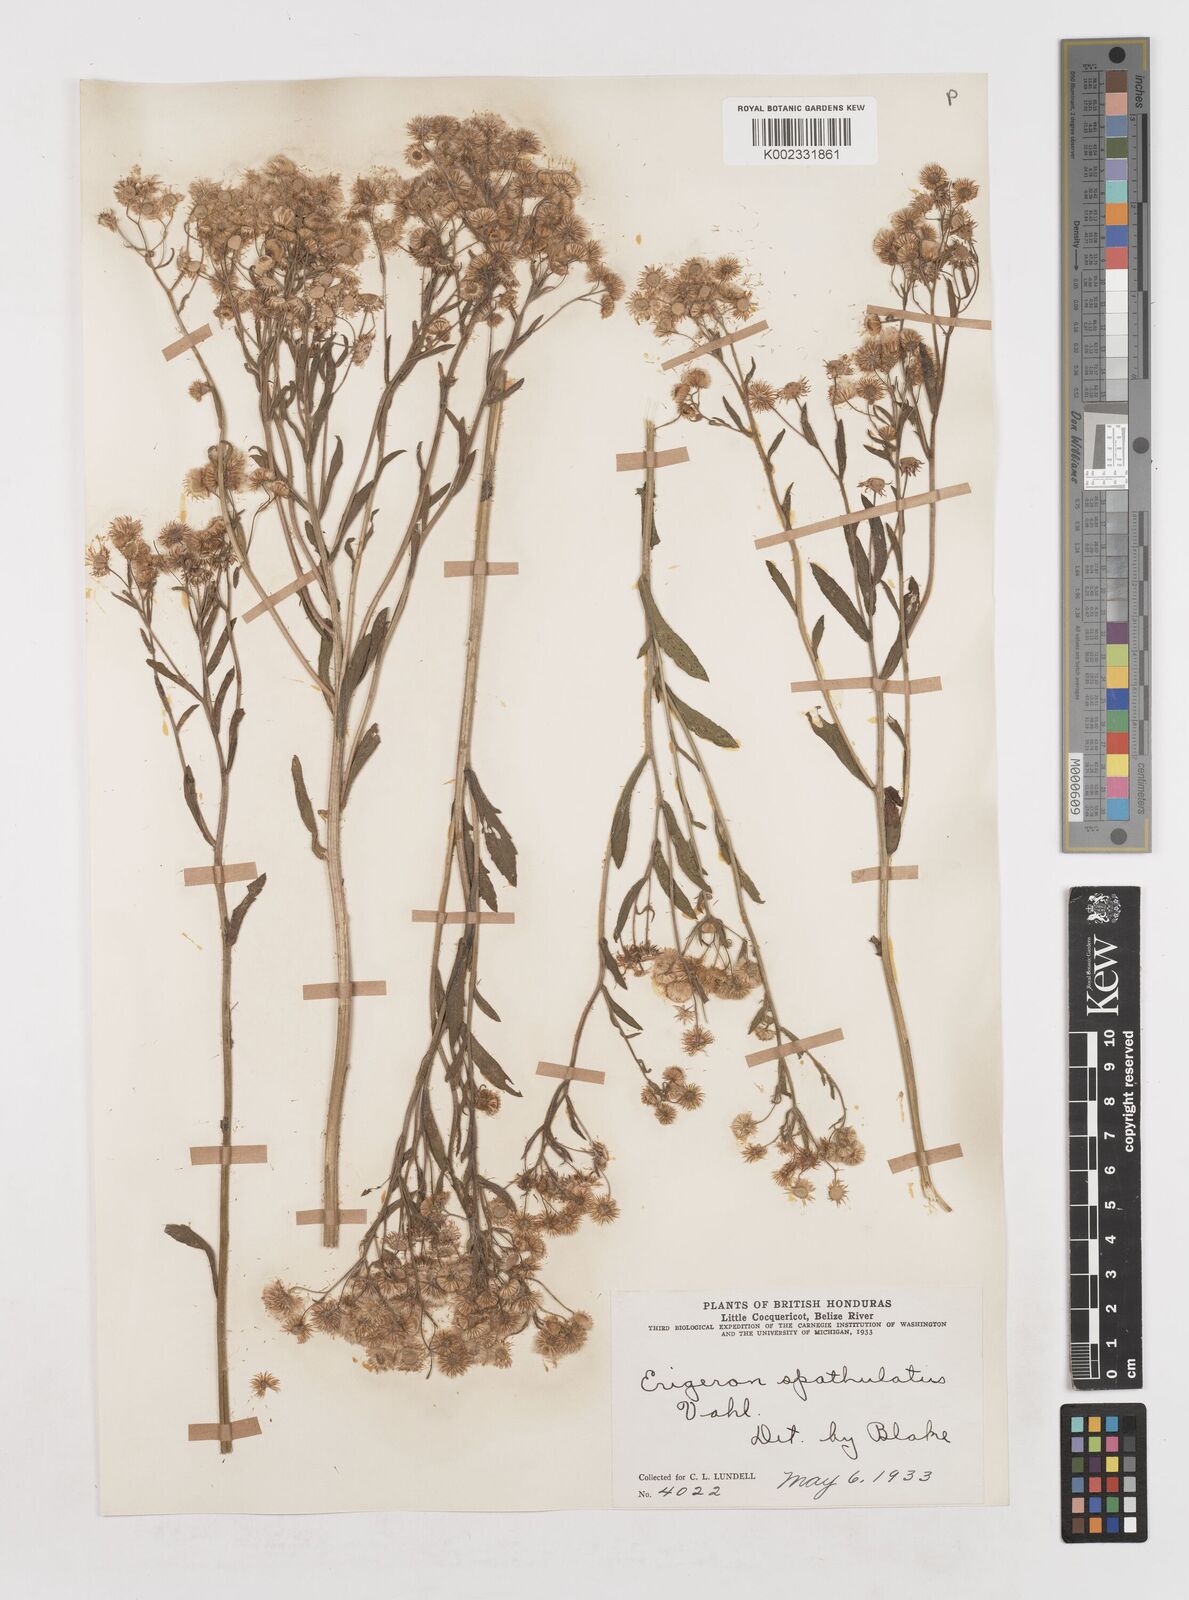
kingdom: Plantae
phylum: Tracheophyta
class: Magnoliopsida
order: Asterales
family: Asteraceae
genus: Erigeron
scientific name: Erigeron laevigatus
